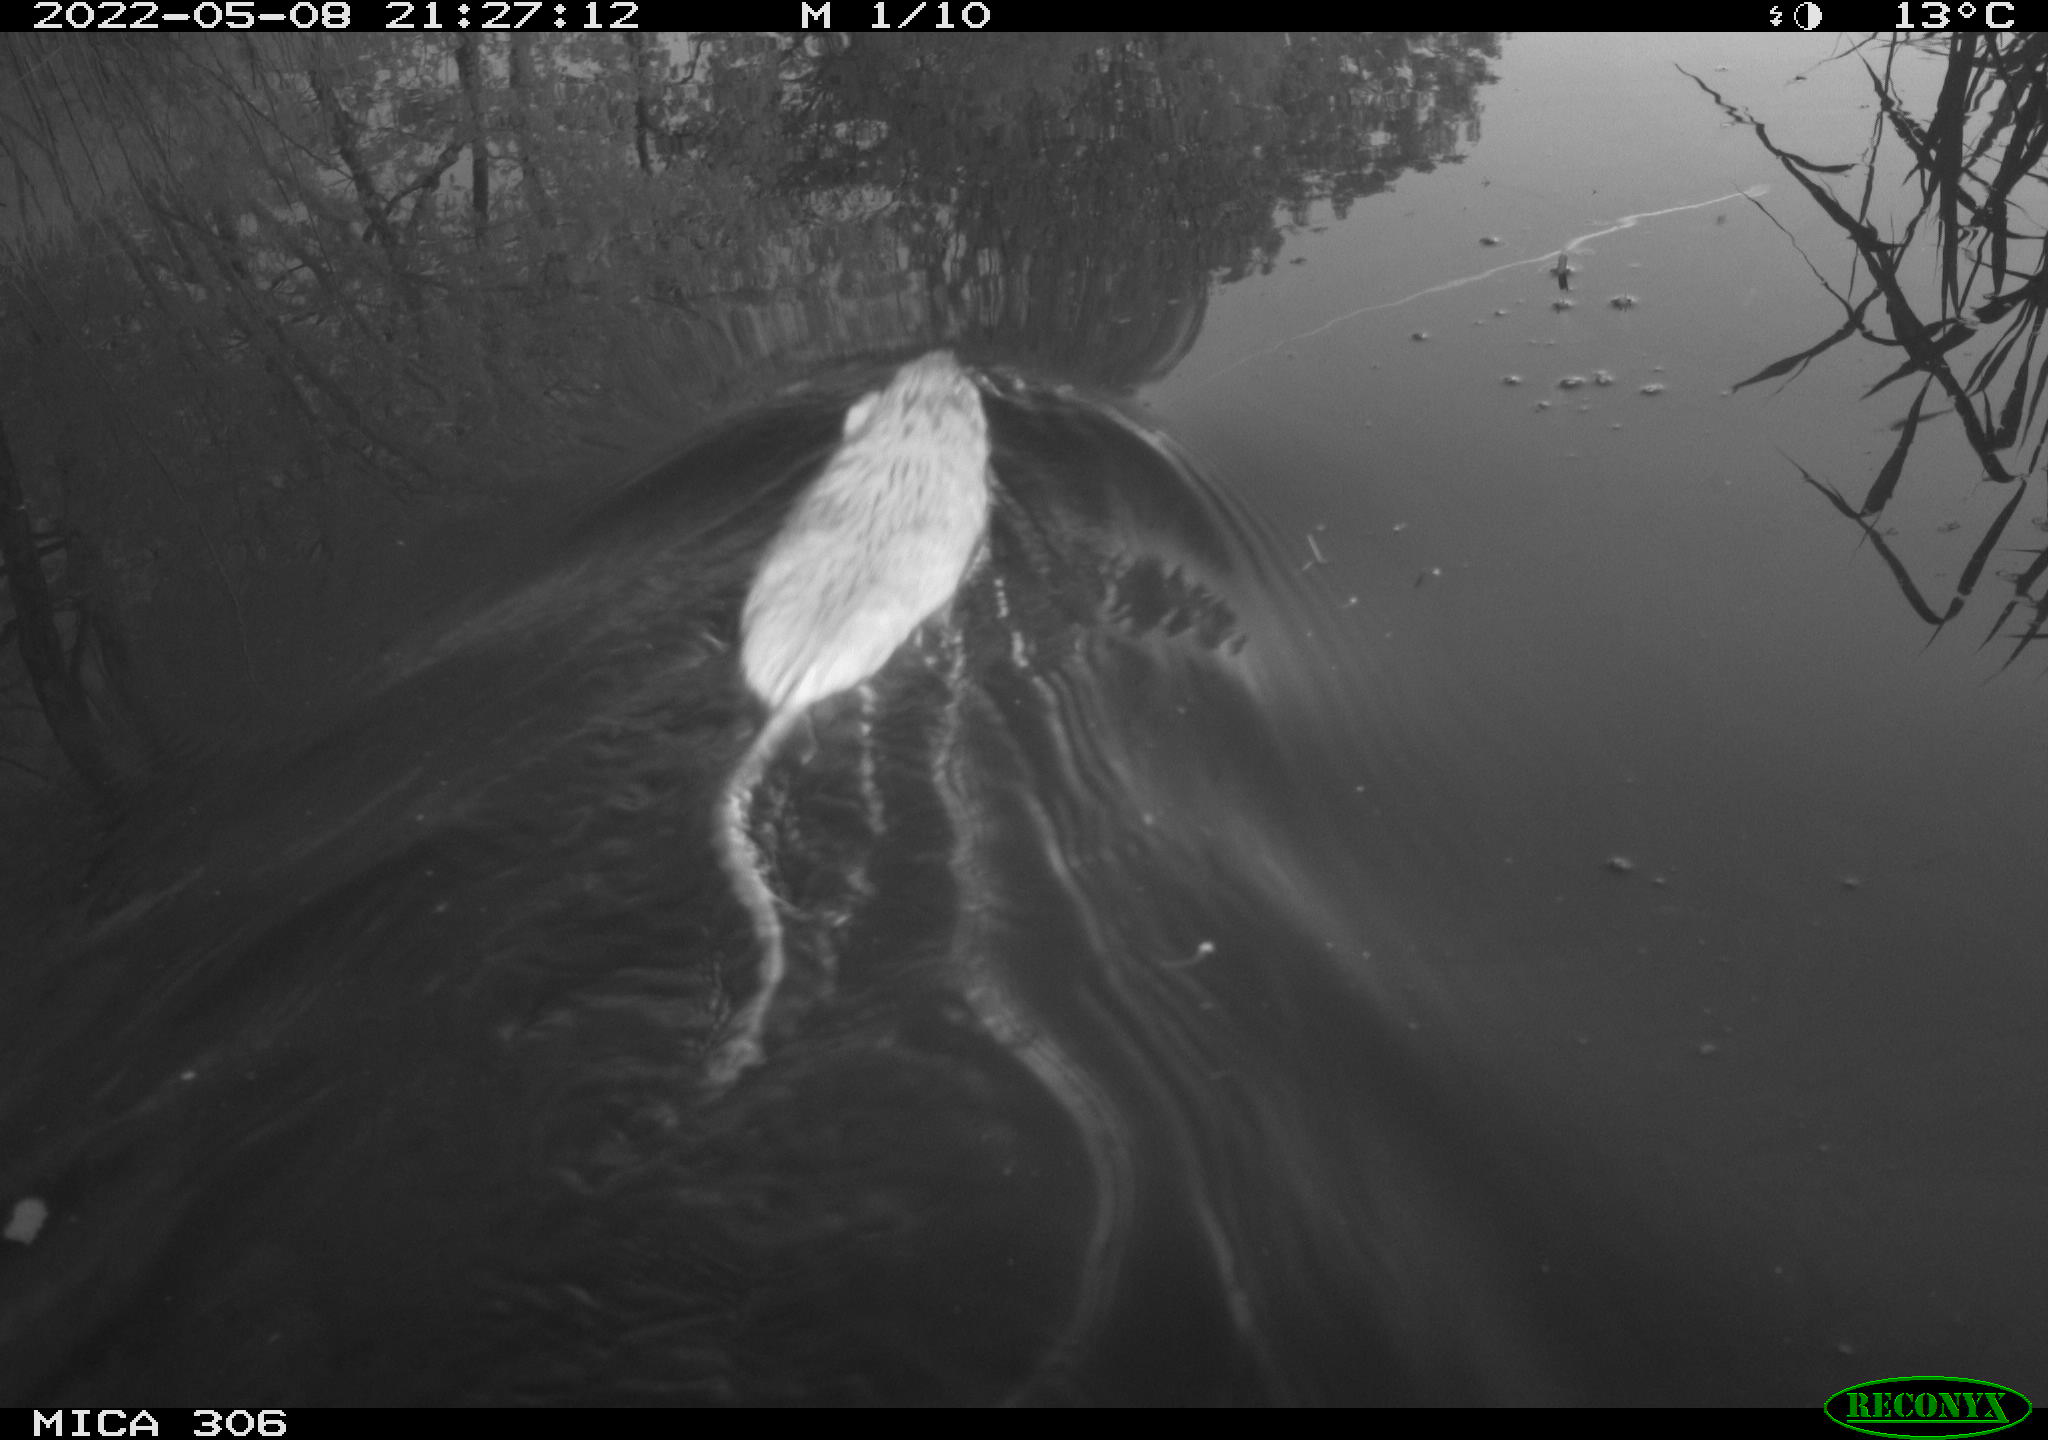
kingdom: Animalia
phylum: Chordata
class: Mammalia
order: Rodentia
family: Cricetidae
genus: Ondatra
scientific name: Ondatra zibethicus
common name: Muskrat
